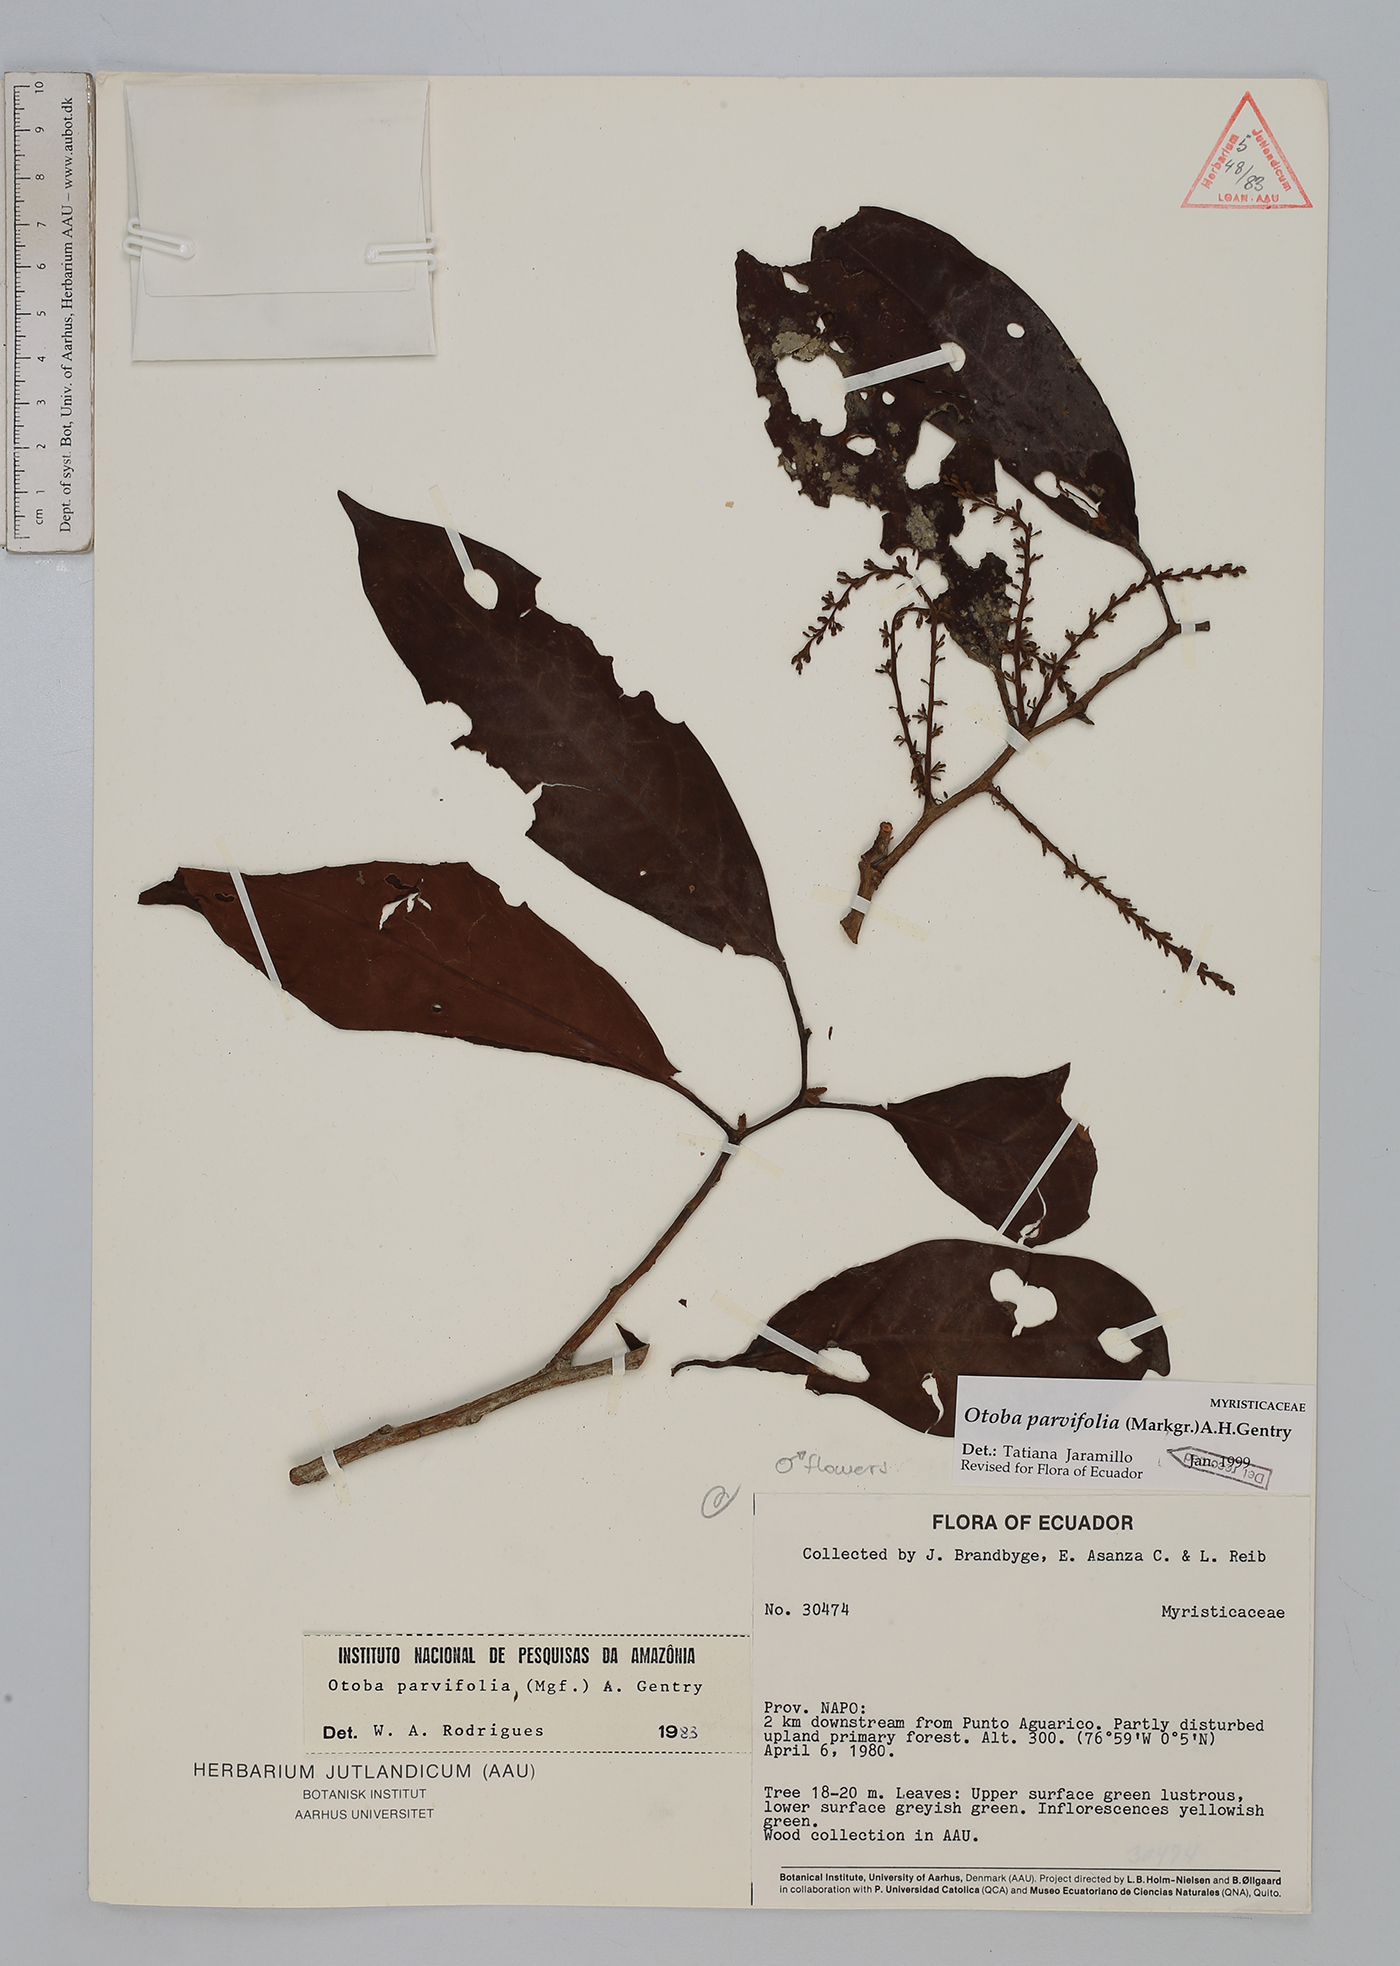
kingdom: Plantae
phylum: Tracheophyta
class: Magnoliopsida
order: Magnoliales
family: Myristicaceae
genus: Otoba
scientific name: Otoba parvifolia
